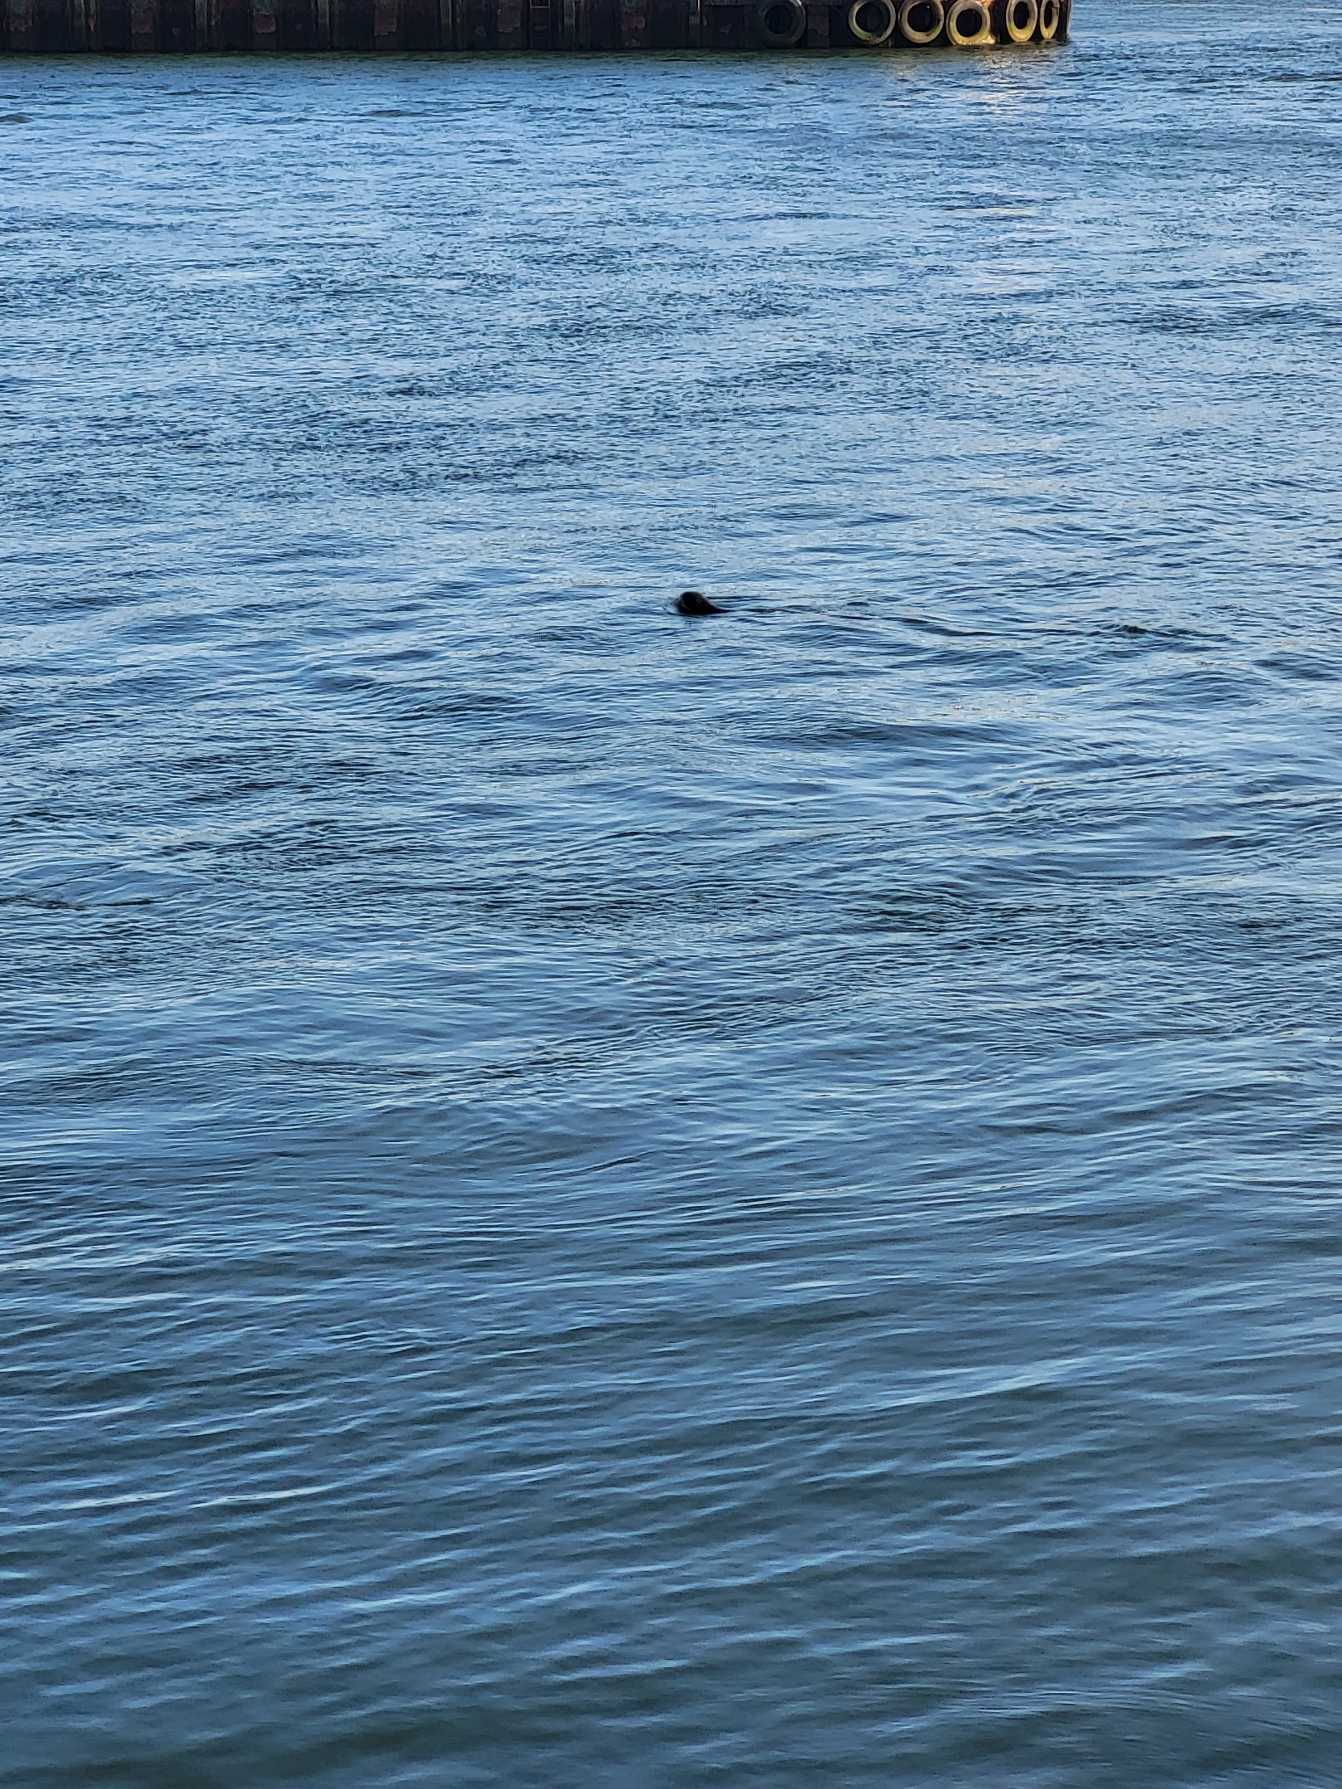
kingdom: Animalia
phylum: Chordata
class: Mammalia
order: Carnivora
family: Phocidae
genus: Phoca
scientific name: Phoca vitulina
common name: Spættet sæl
